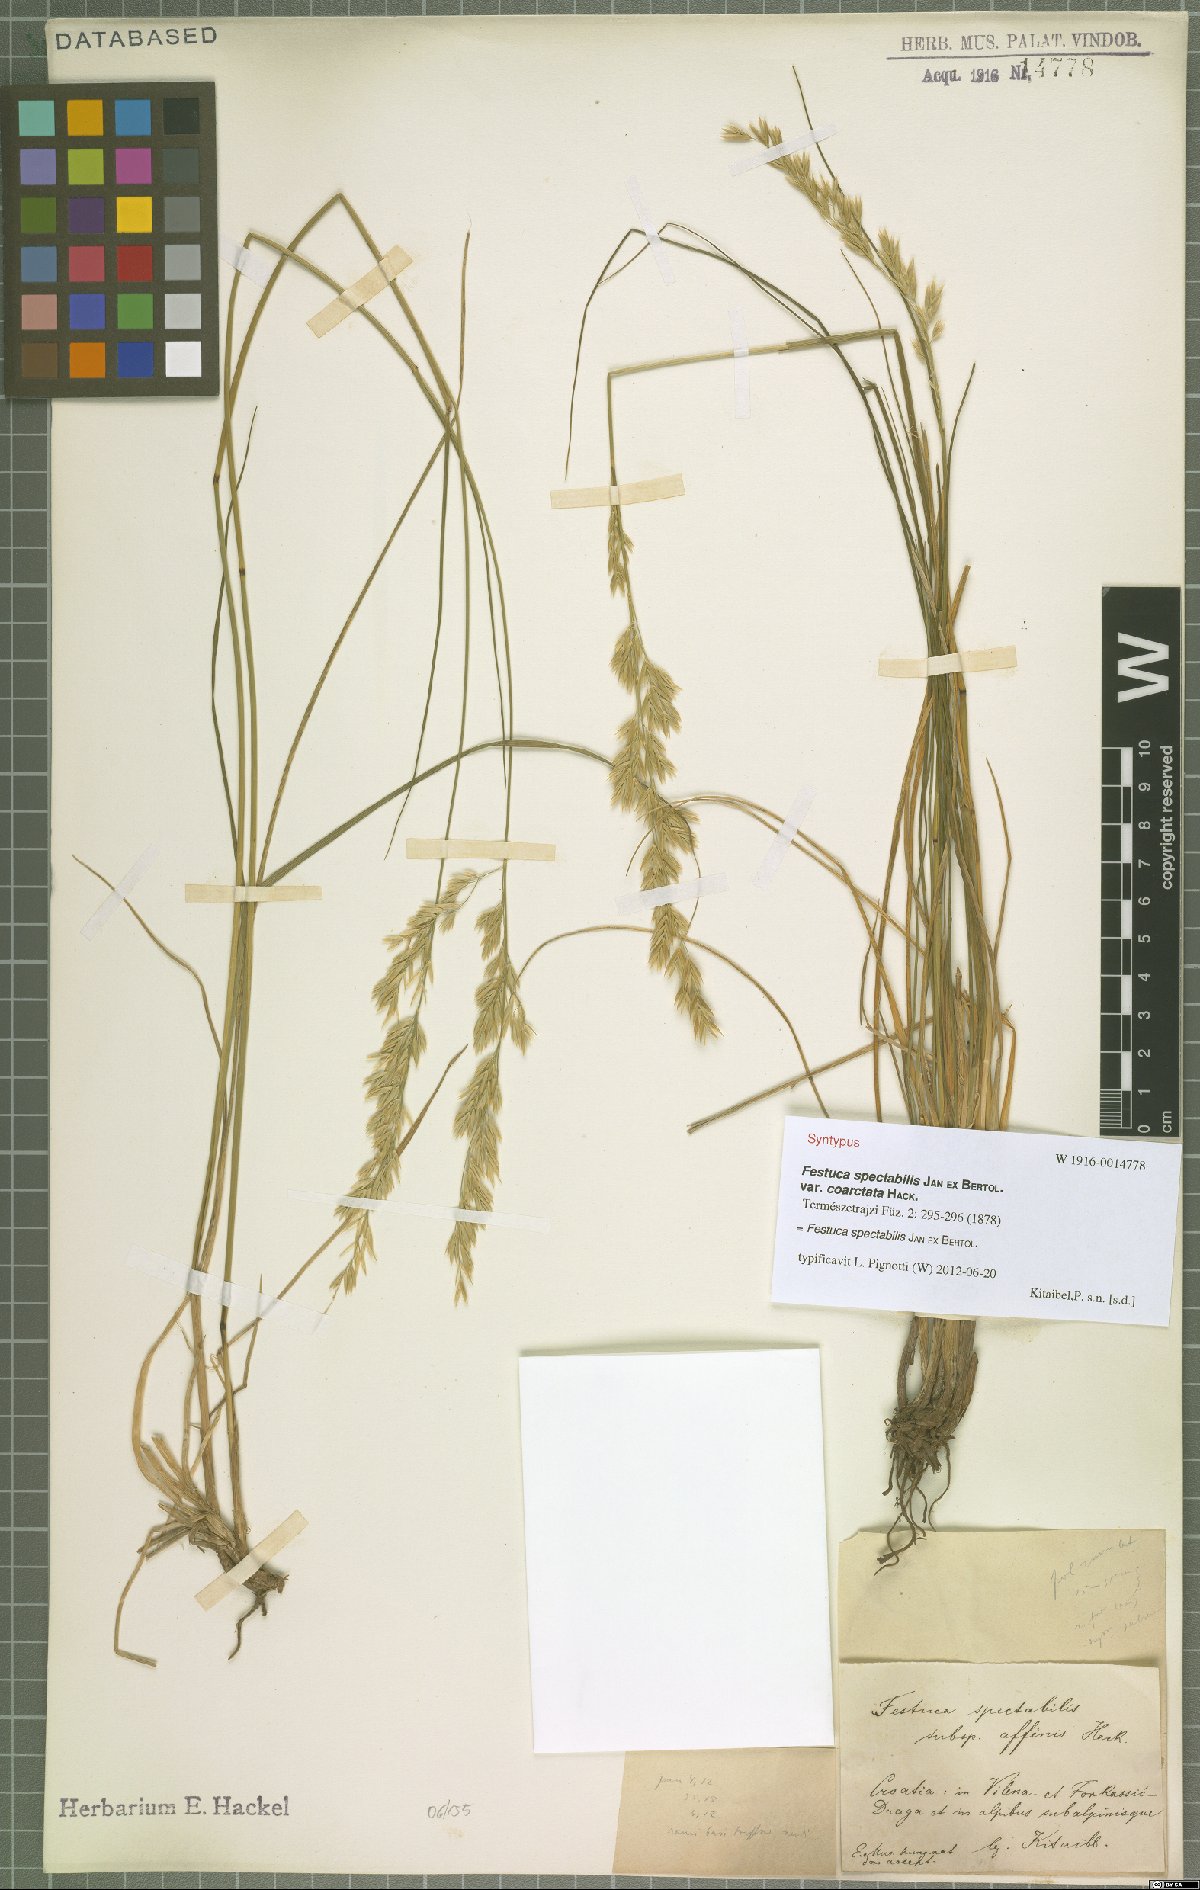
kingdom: Plantae
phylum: Tracheophyta
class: Liliopsida
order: Poales
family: Poaceae
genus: Festuca
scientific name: Festuca spectabilis
